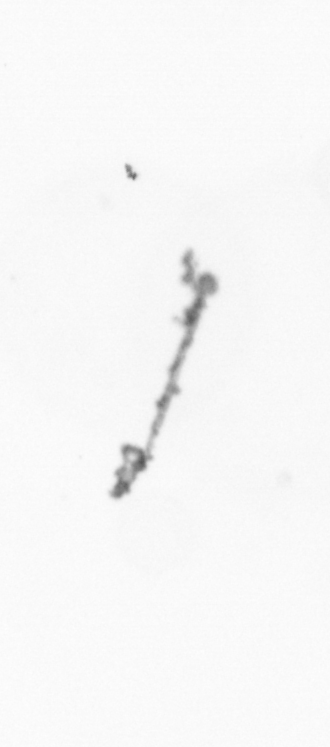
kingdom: Chromista
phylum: Ochrophyta
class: Bacillariophyceae
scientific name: Bacillariophyceae
